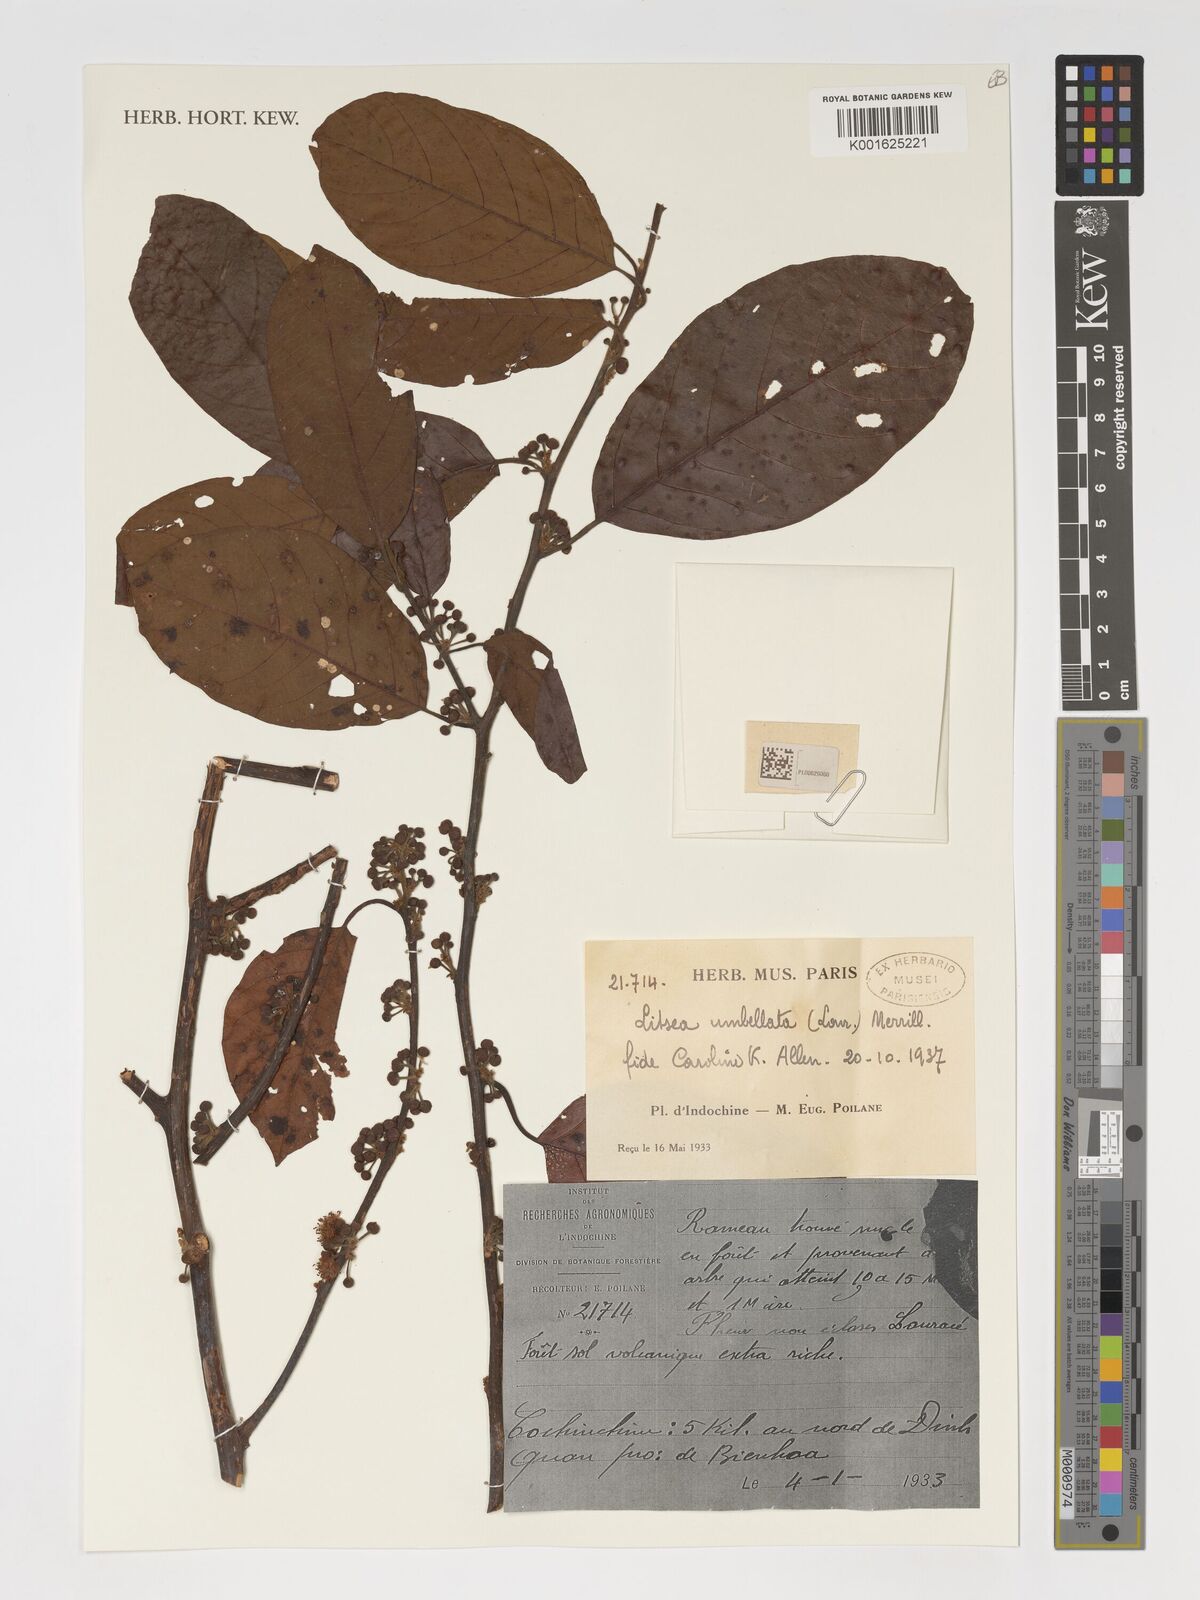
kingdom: Plantae
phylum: Tracheophyta
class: Magnoliopsida
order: Laurales
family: Lauraceae
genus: Litsea
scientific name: Litsea umbellata
